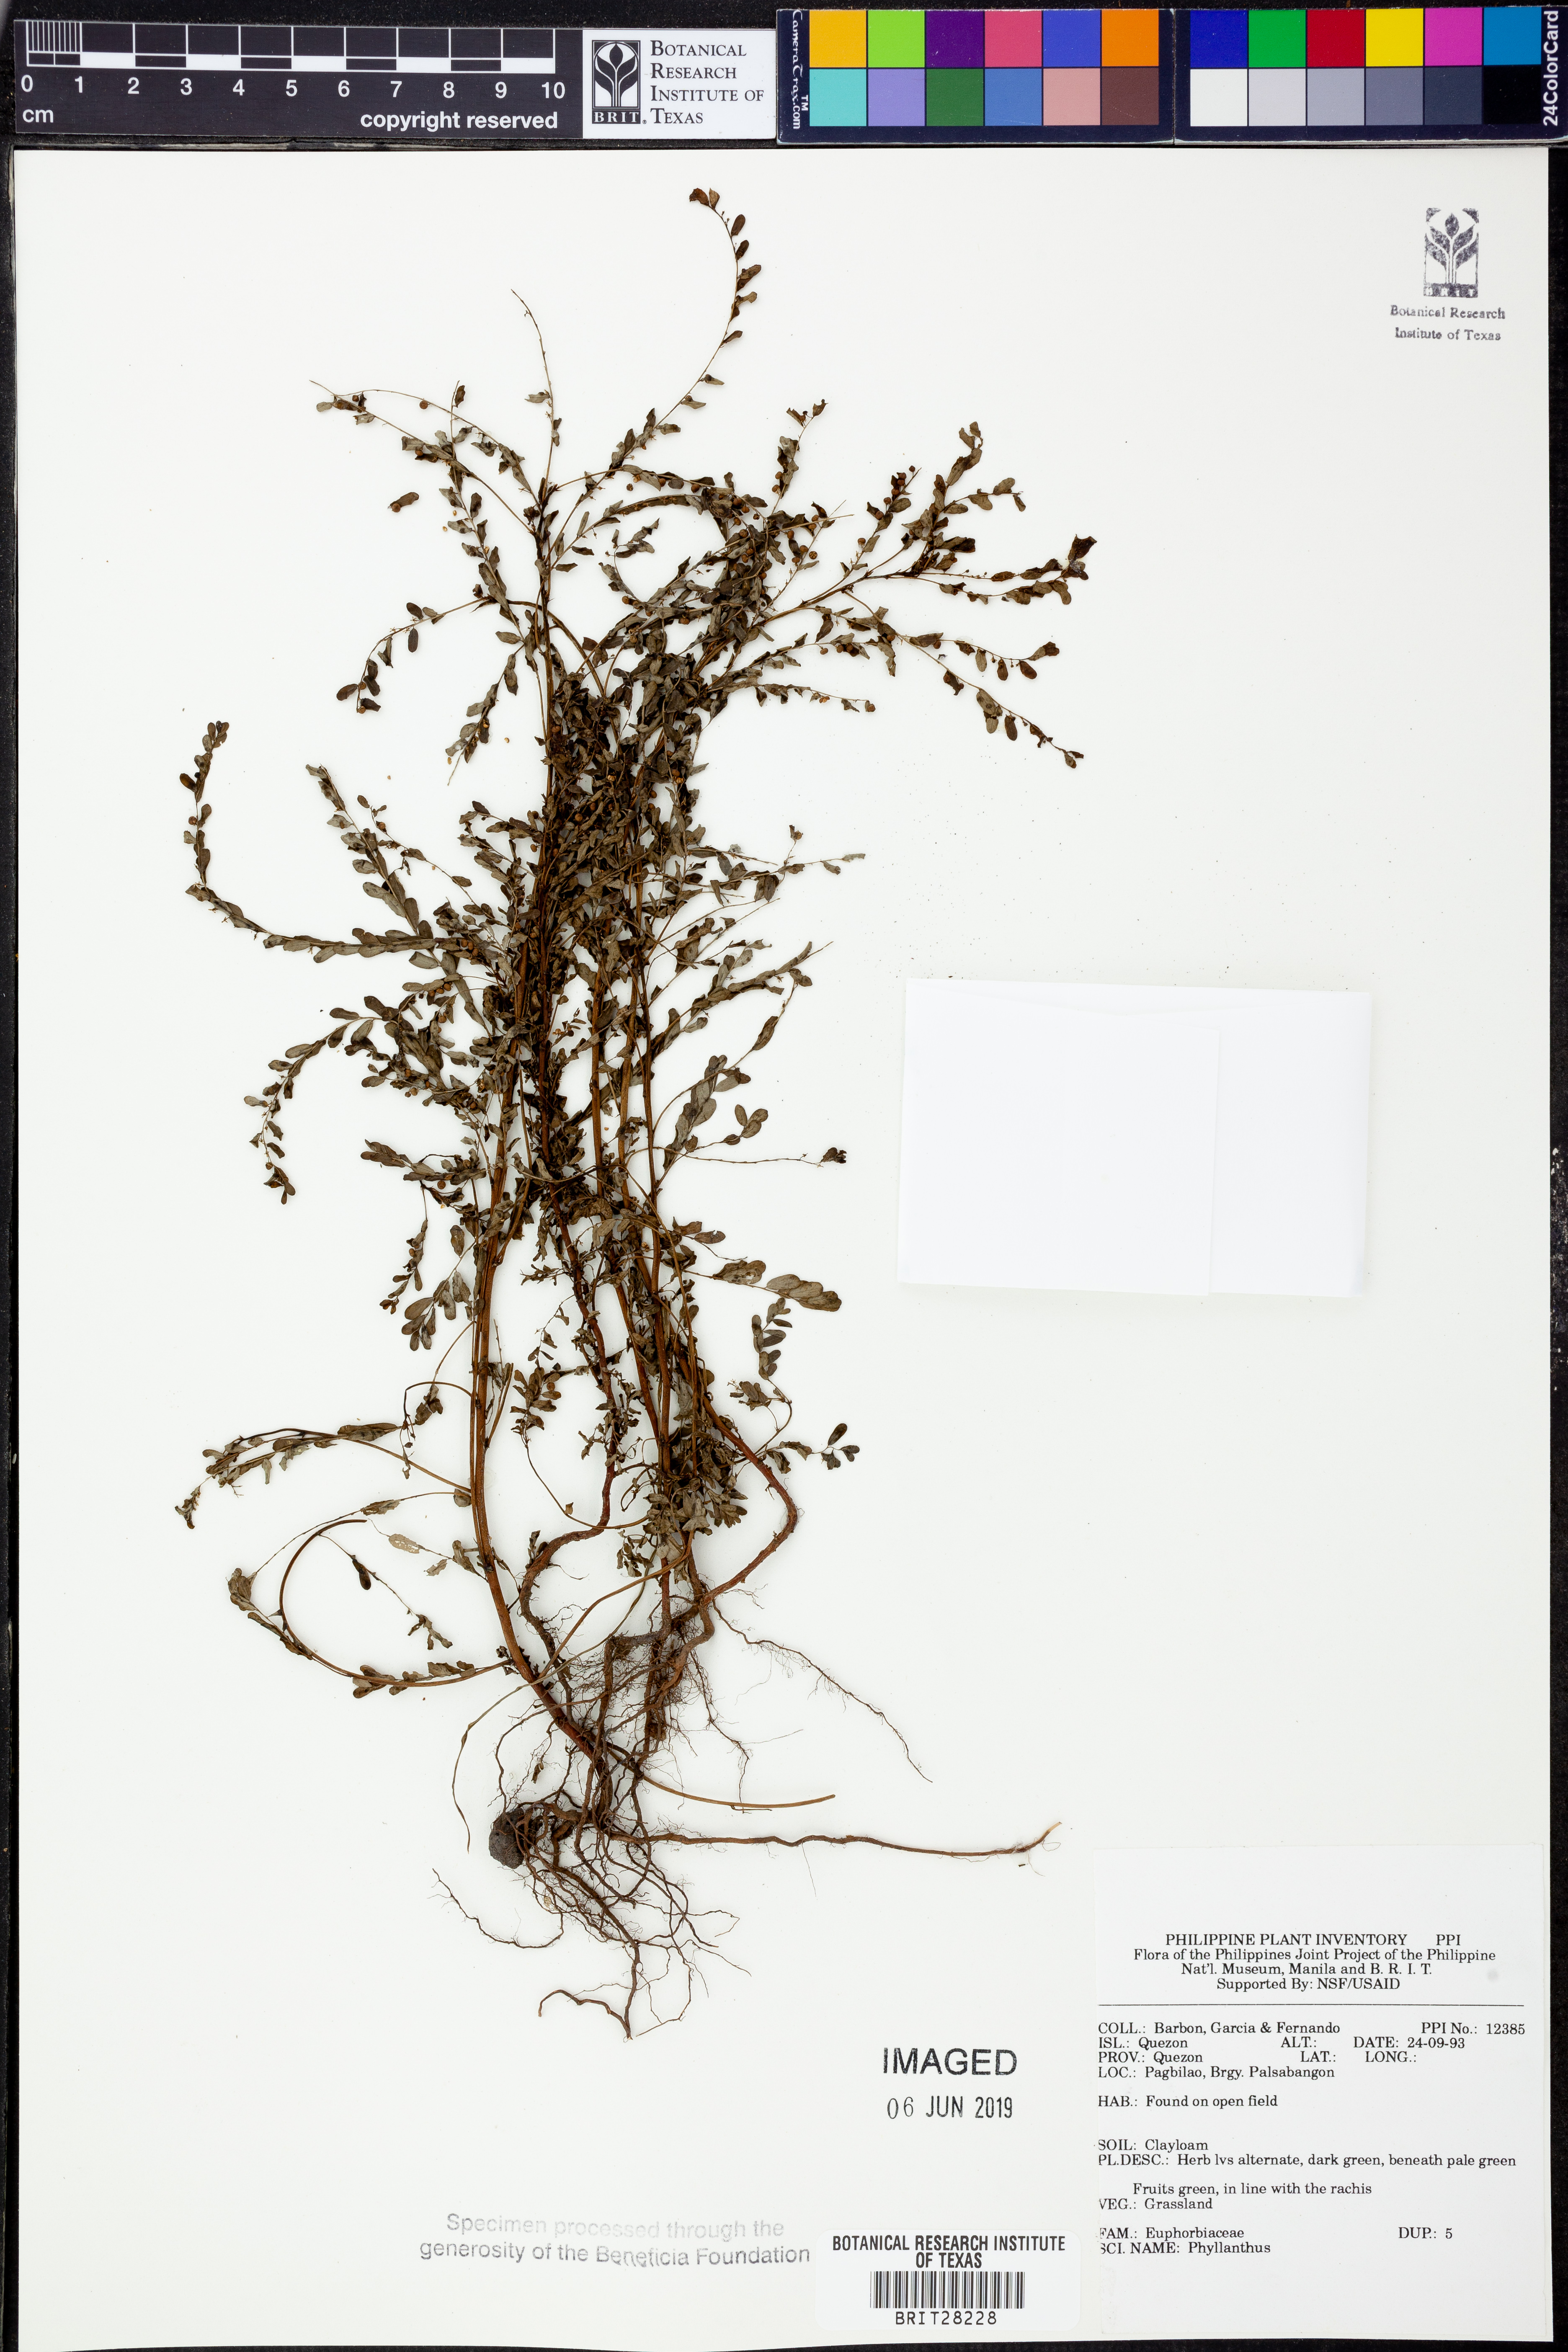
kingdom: Plantae
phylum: Tracheophyta
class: Magnoliopsida
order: Malpighiales
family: Phyllanthaceae
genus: Phyllanthus
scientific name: Phyllanthus
